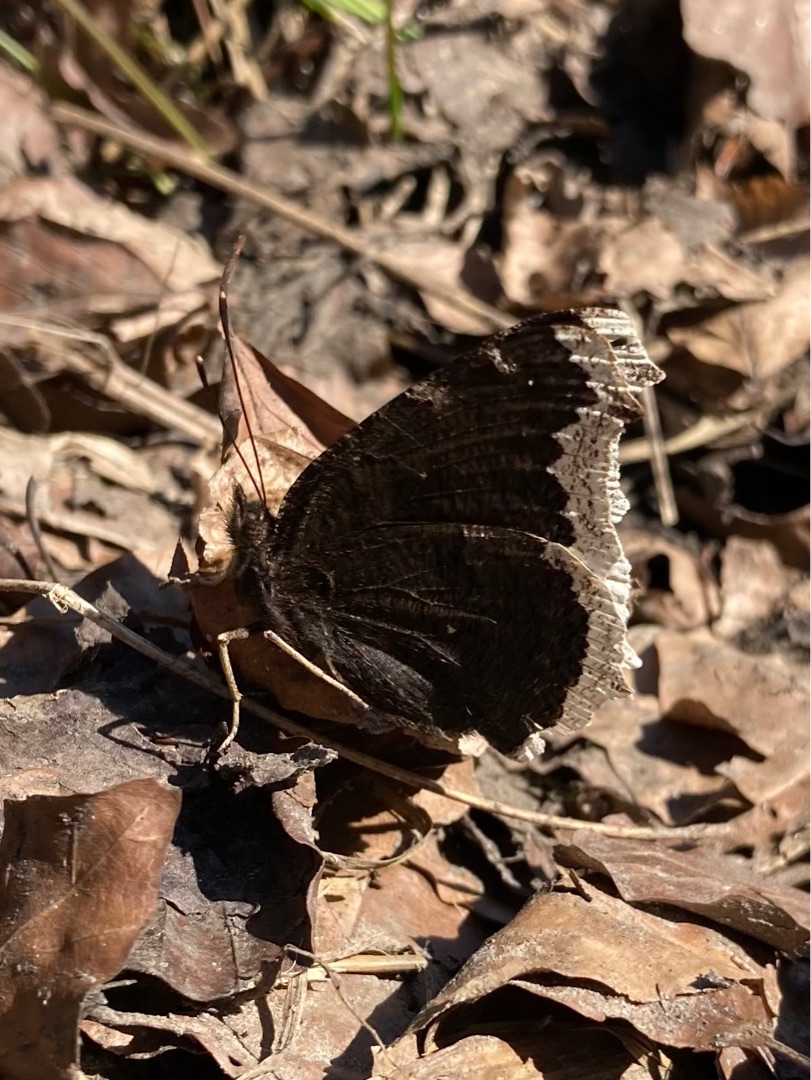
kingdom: Animalia
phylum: Arthropoda
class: Insecta
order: Lepidoptera
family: Nymphalidae
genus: Nymphalis
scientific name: Nymphalis antiopa
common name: Sørgekåbe
